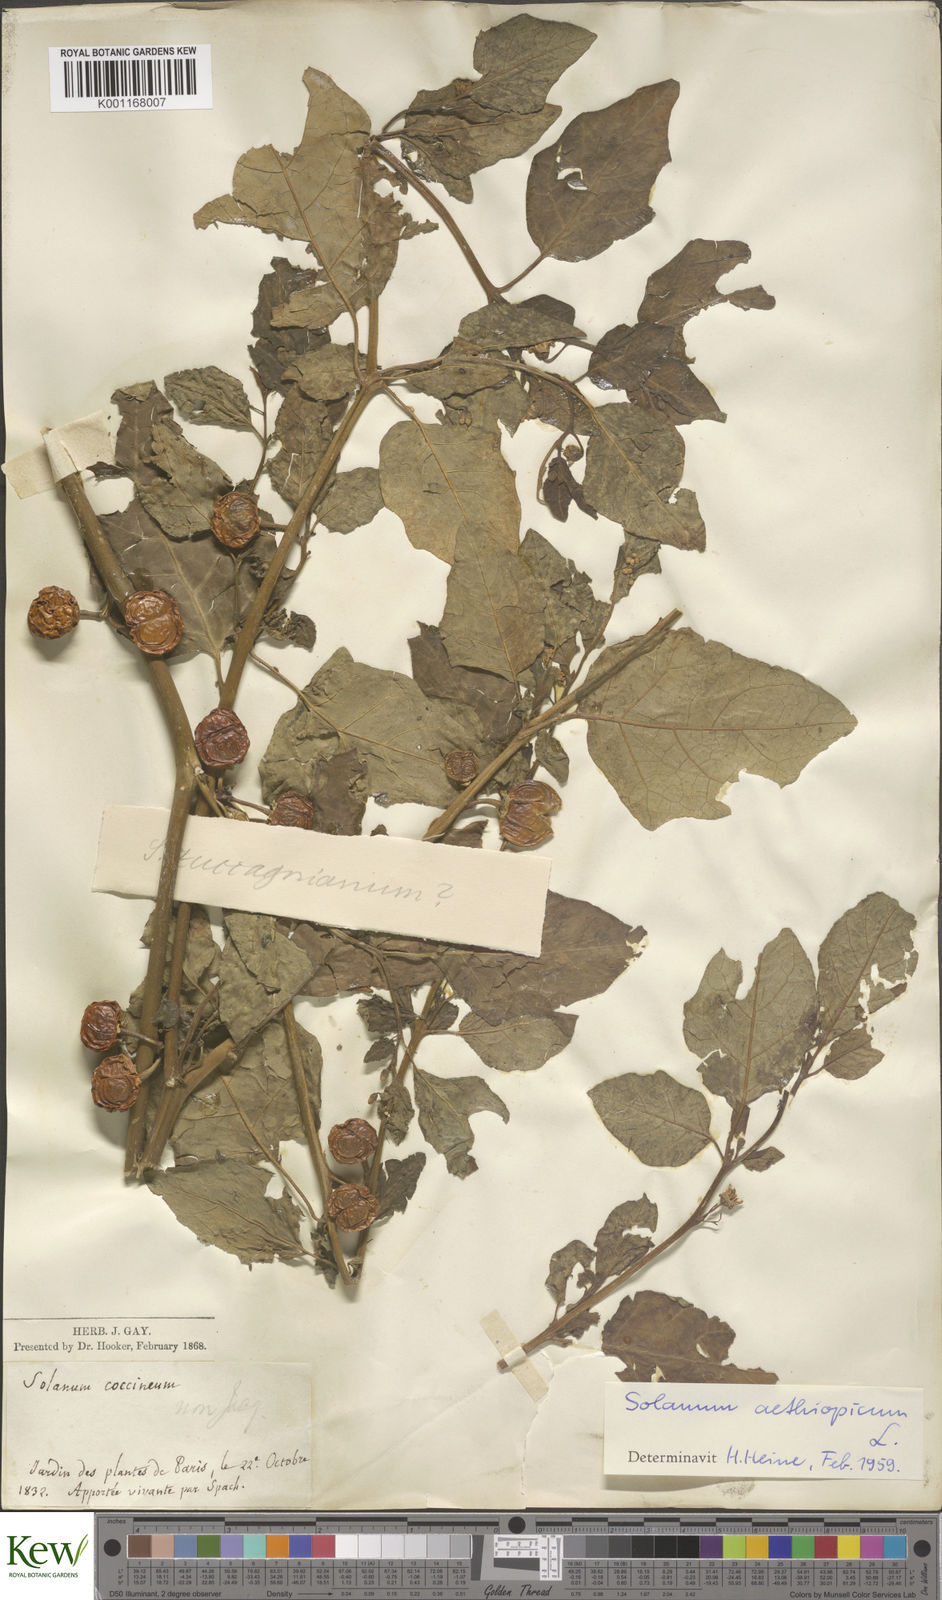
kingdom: Plantae
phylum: Tracheophyta
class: Magnoliopsida
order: Solanales
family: Solanaceae
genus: Solanum
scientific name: Solanum aethiopicum
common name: Gilo
